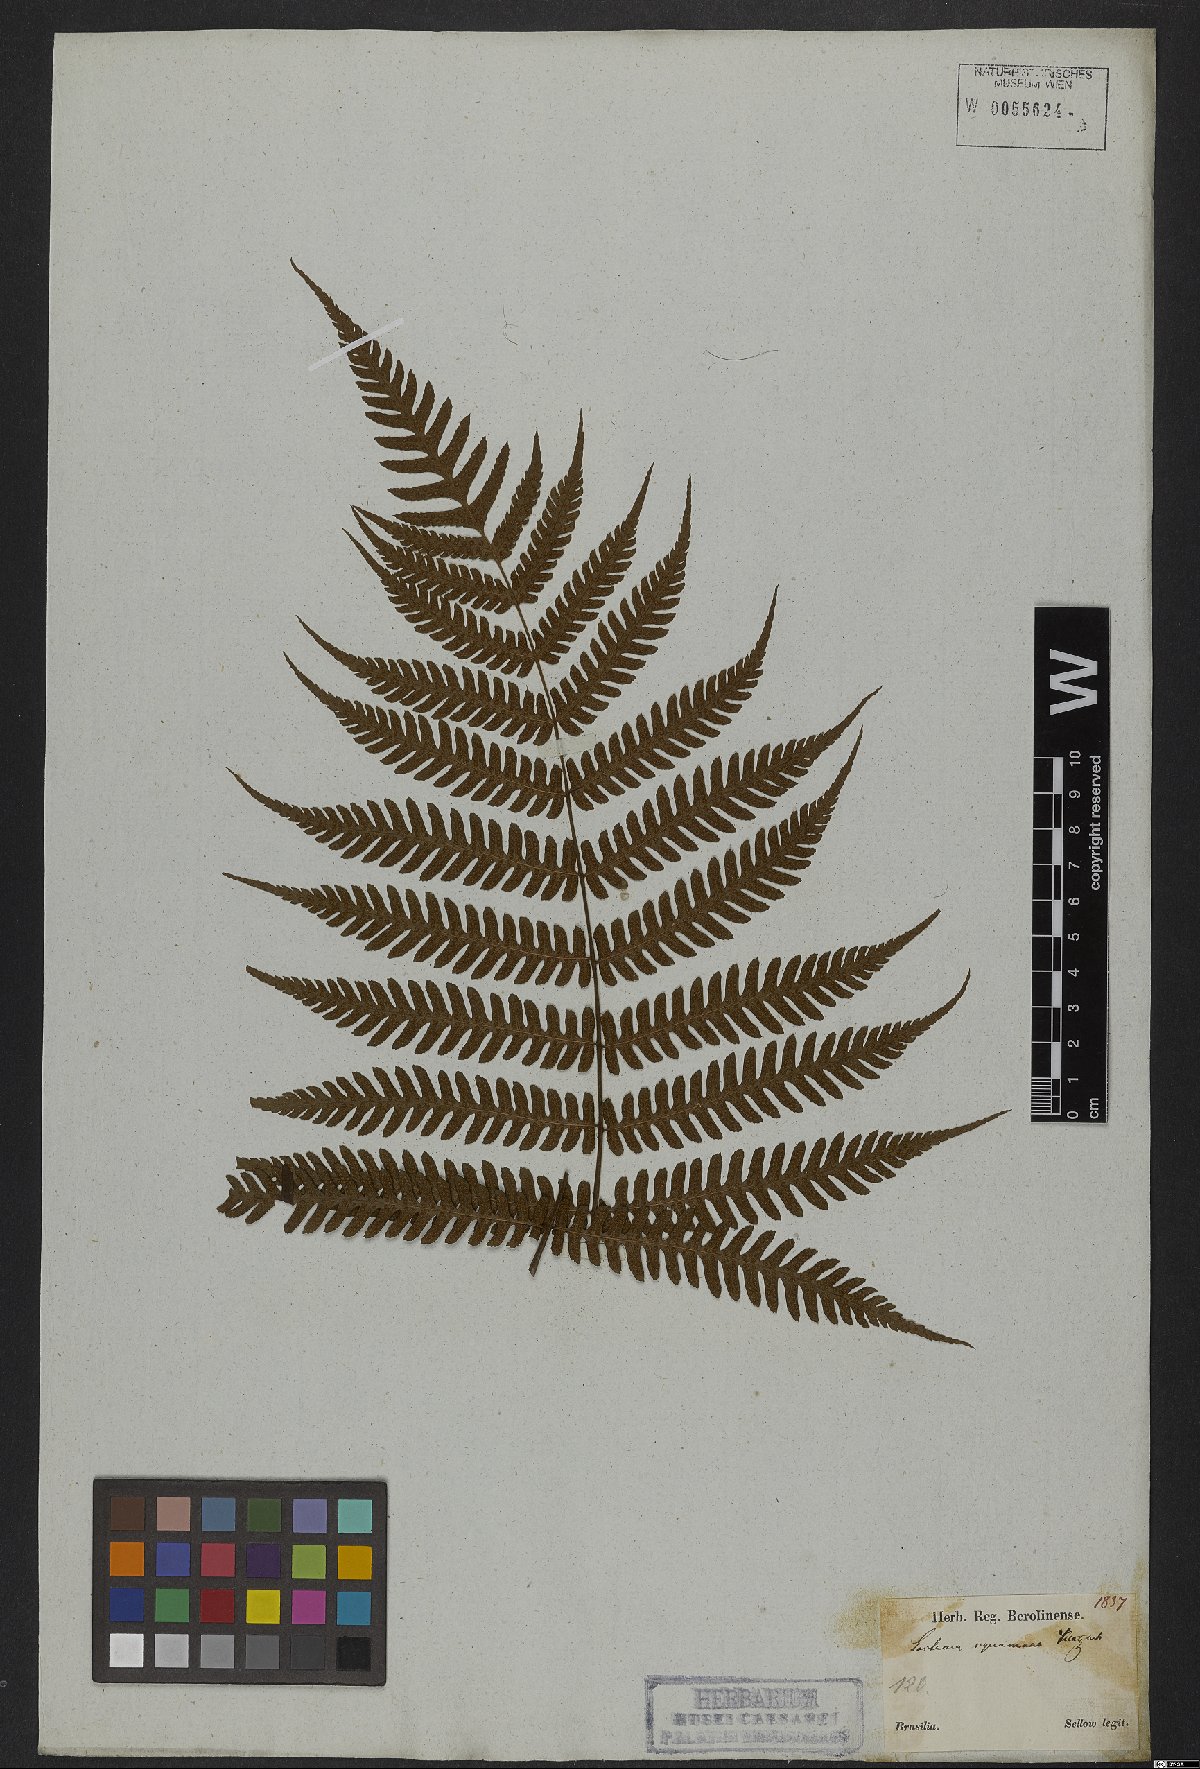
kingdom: Plantae
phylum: Tracheophyta
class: Polypodiopsida
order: Polypodiales
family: Dryopteridaceae
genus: Ctenitis
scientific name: Ctenitis falciculata
